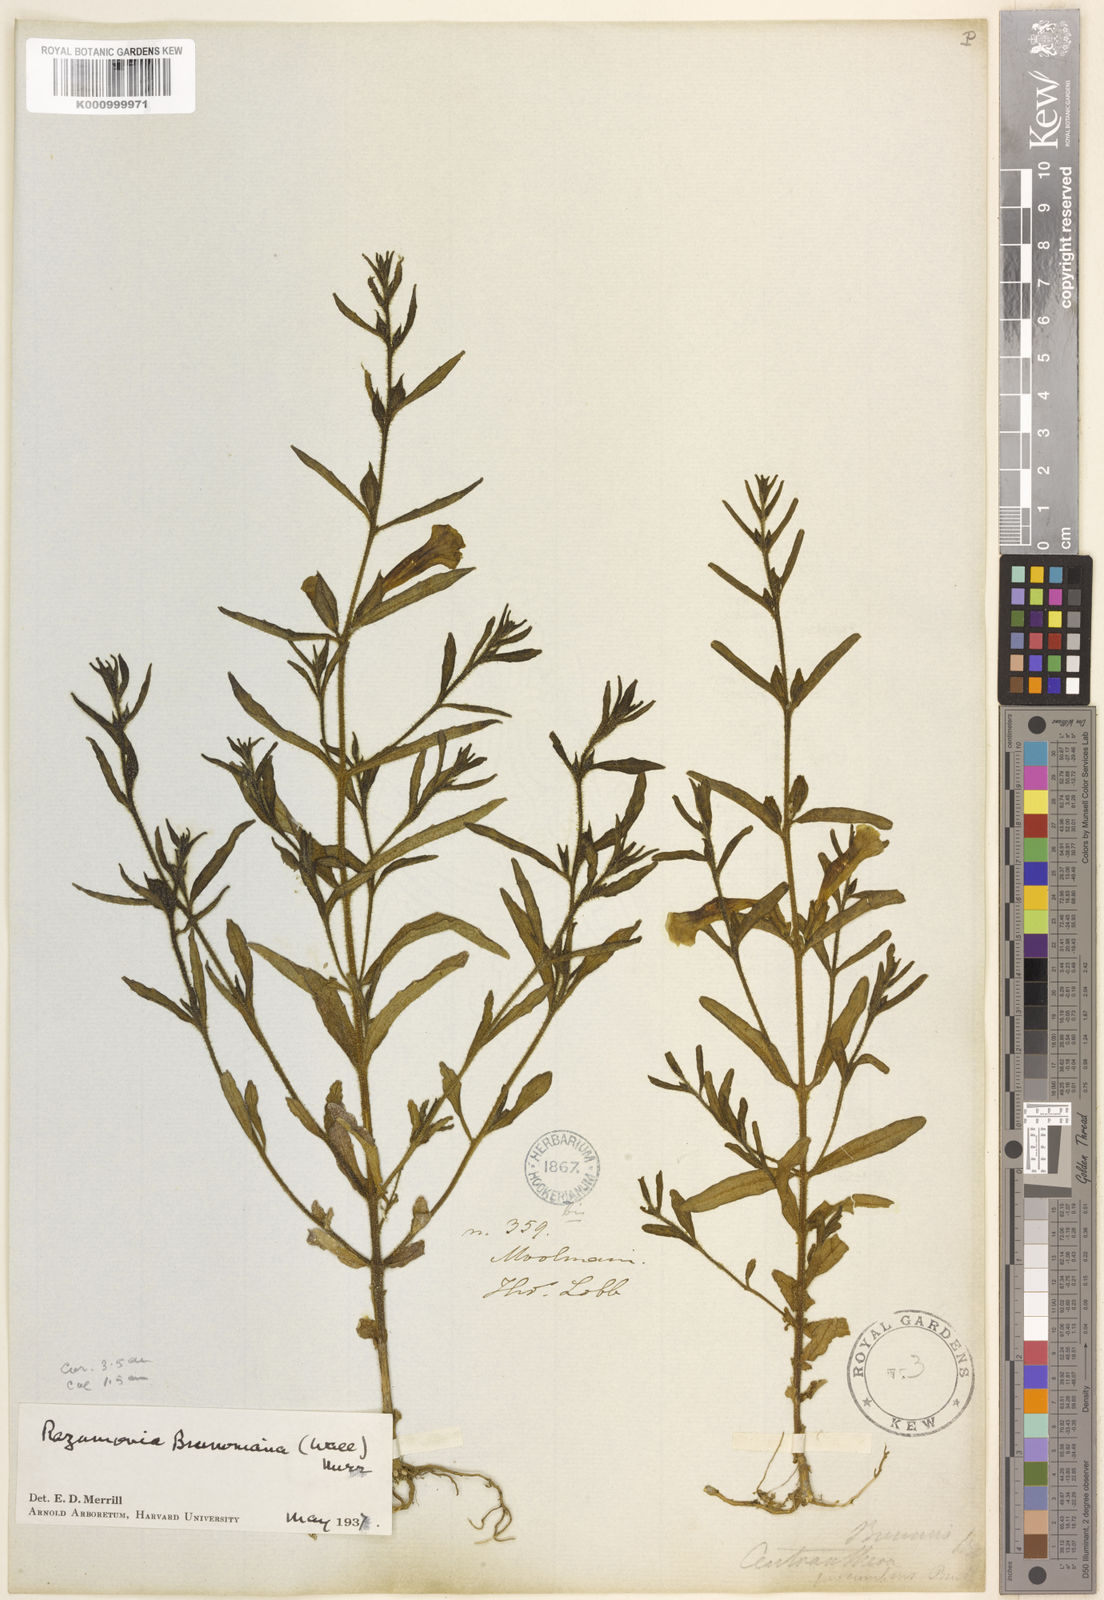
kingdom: Plantae
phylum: Tracheophyta
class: Magnoliopsida
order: Lamiales
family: Orobanchaceae
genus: Centranthera
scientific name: Centranthera brunoniana
